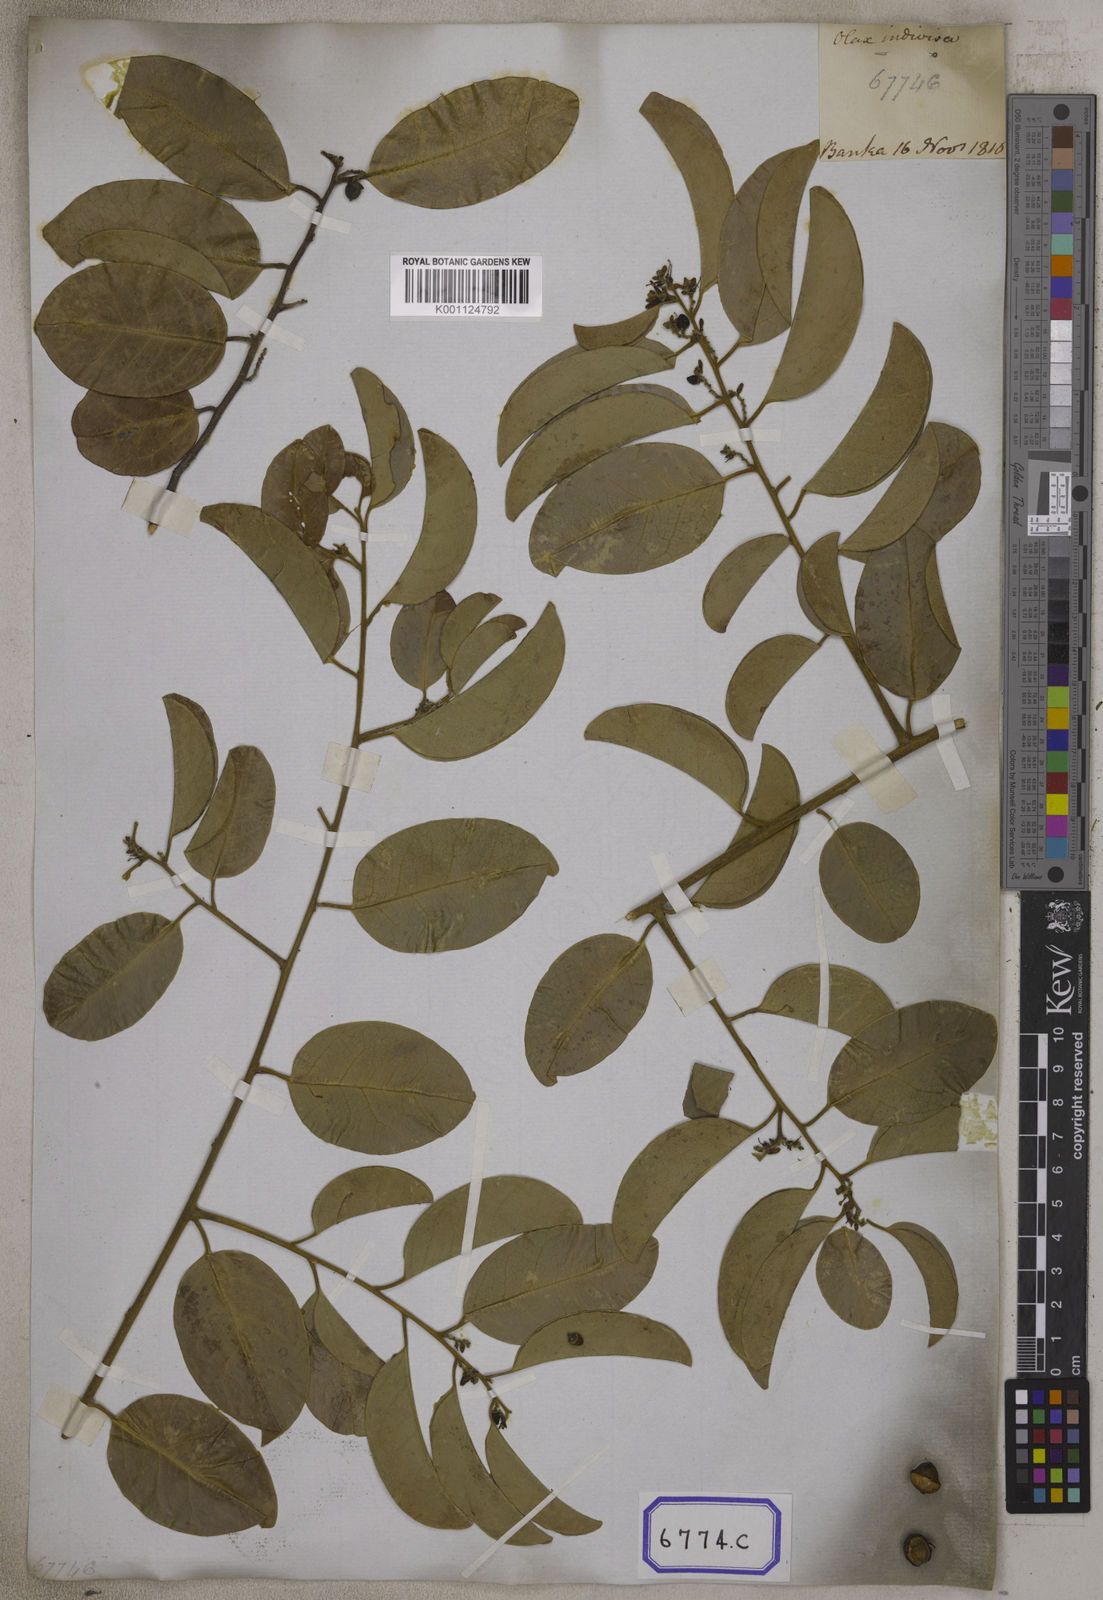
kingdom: Plantae
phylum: Tracheophyta
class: Magnoliopsida
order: Santalales
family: Olacaceae
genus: Olax
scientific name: Olax psittacorum
